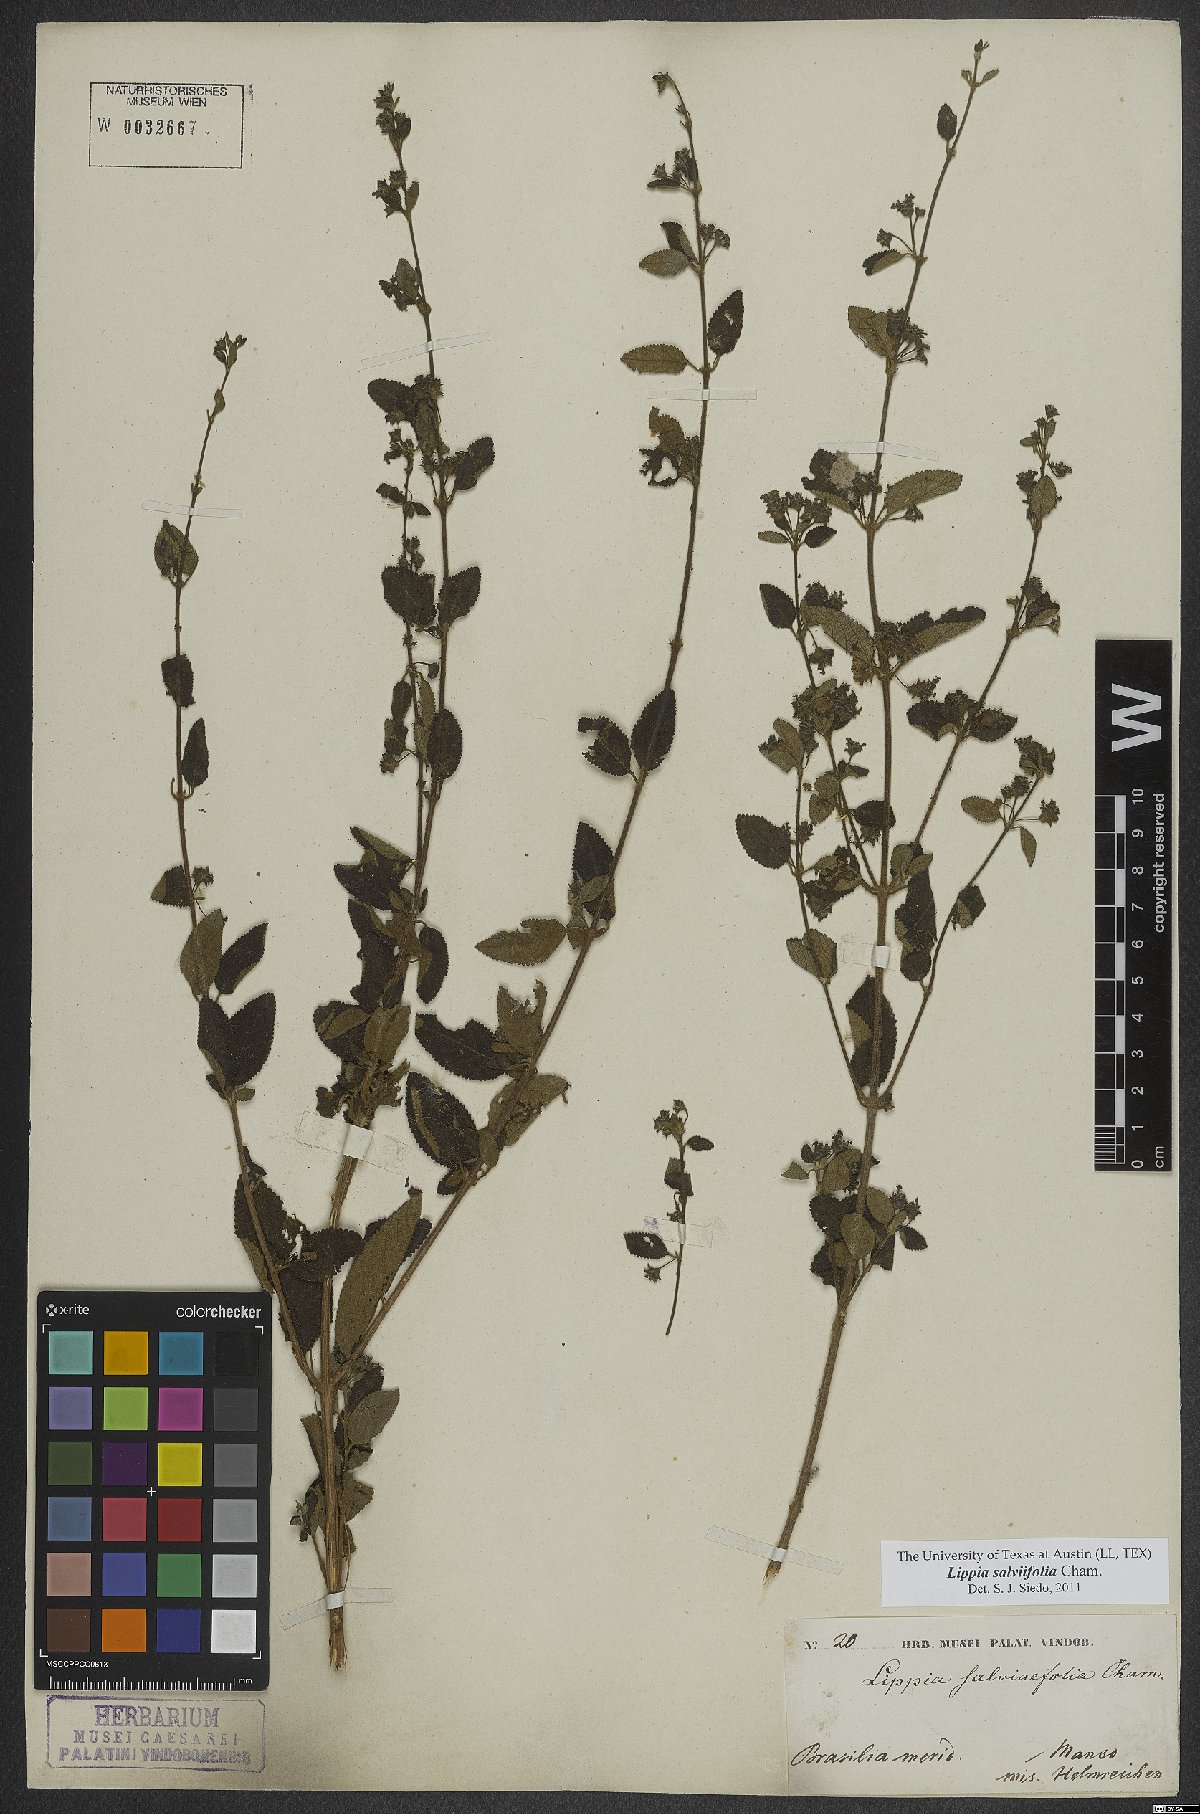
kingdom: Plantae
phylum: Tracheophyta
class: Magnoliopsida
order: Lamiales
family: Verbenaceae
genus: Lippia
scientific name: Lippia origanoides
